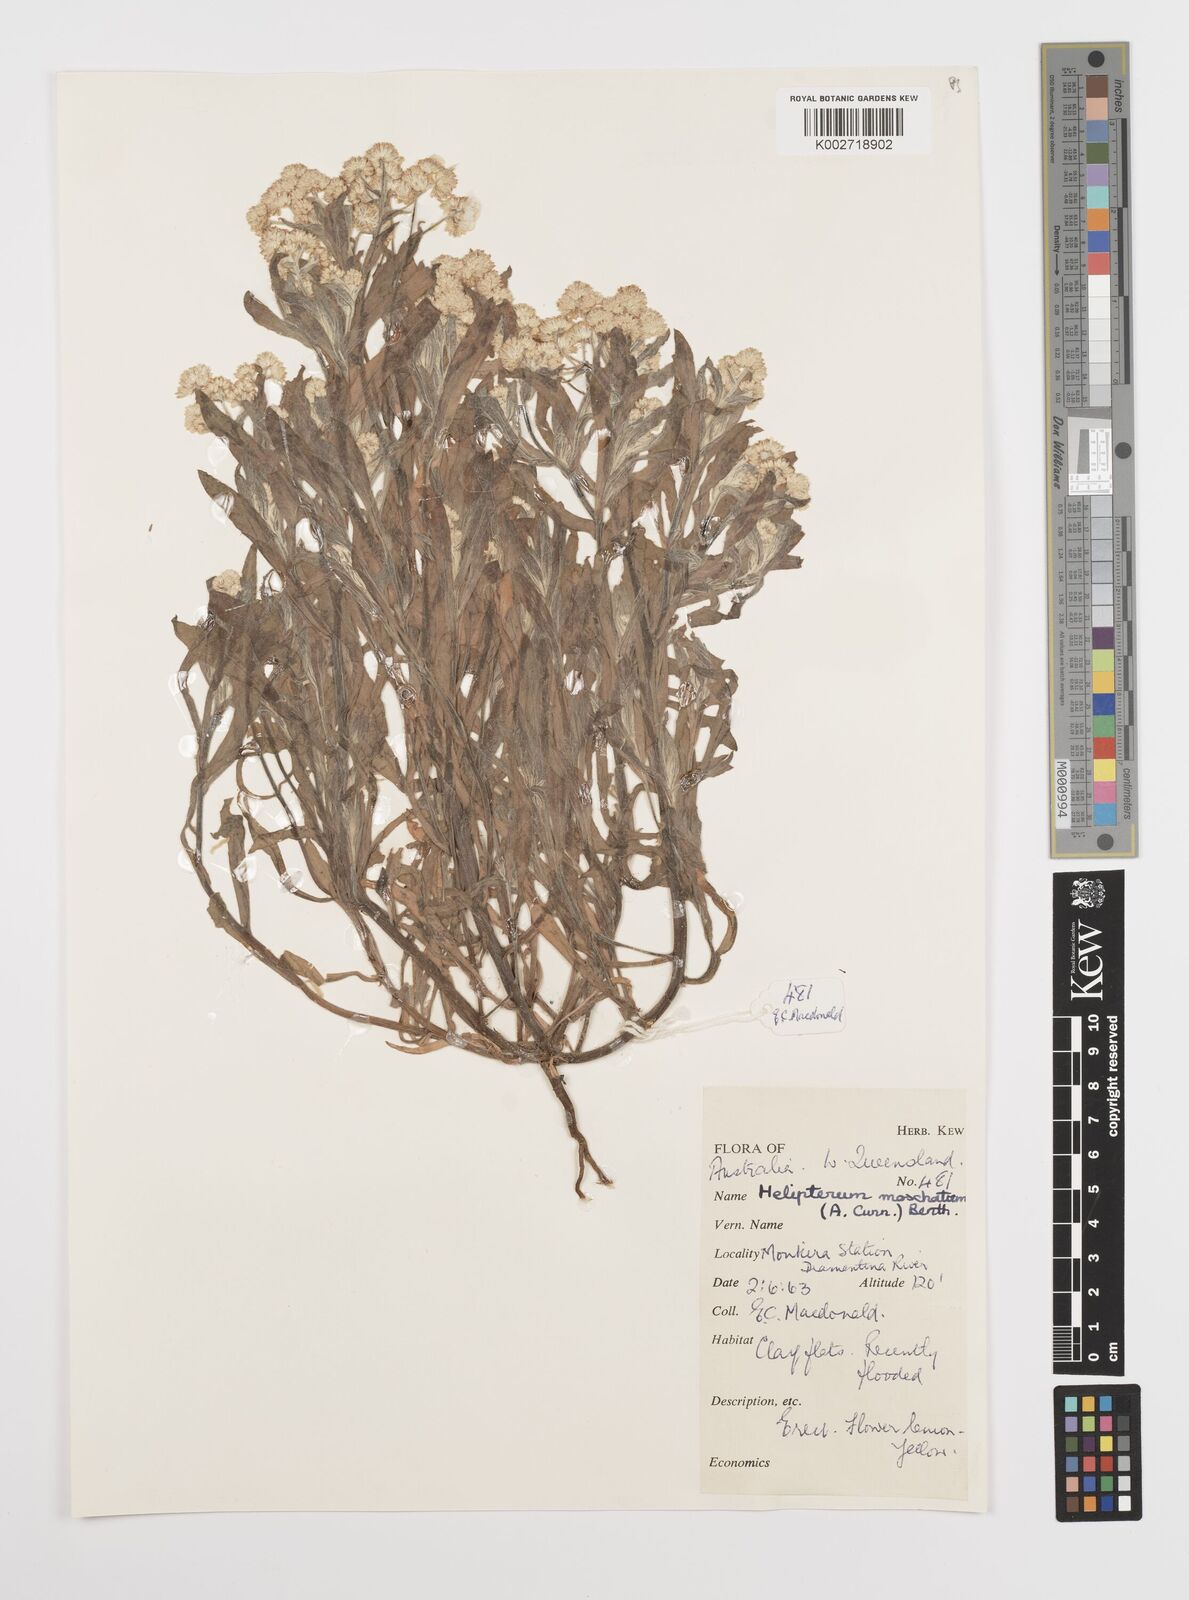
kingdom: Plantae
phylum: Tracheophyta
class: Magnoliopsida
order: Asterales
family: Asteraceae
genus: Rhodanthe
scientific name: Rhodanthe moschata
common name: Musk sunray
